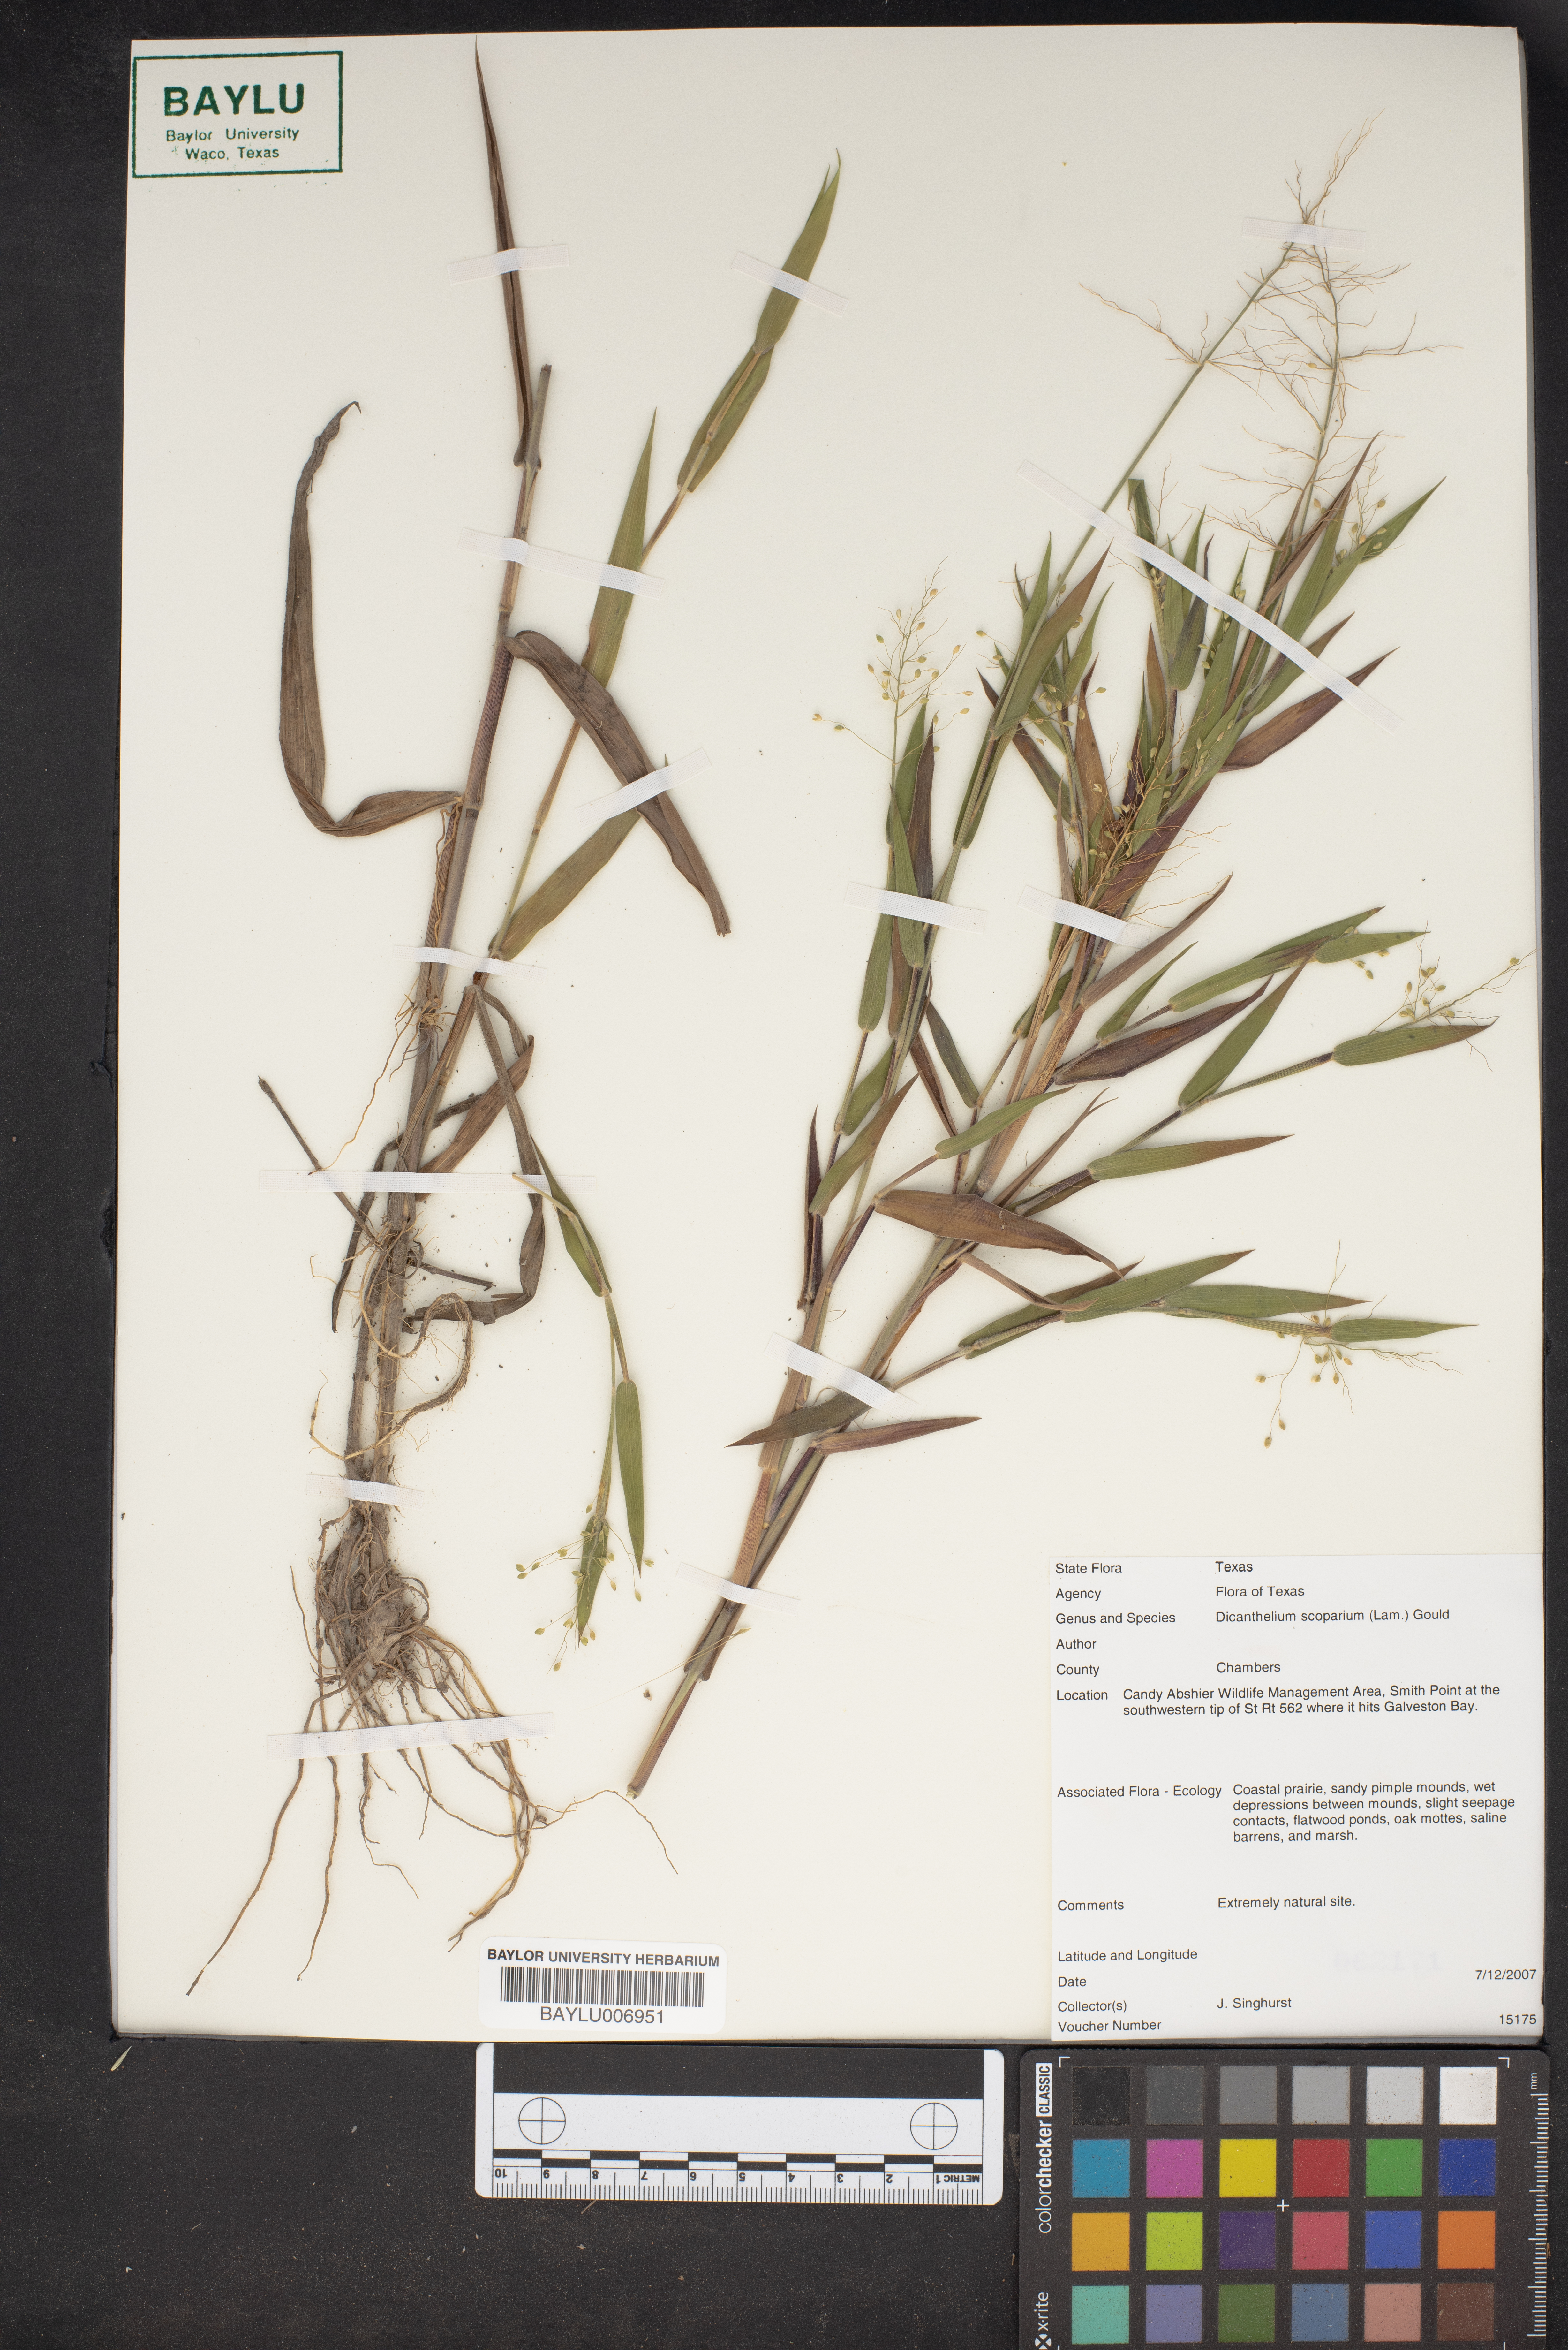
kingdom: Plantae
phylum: Tracheophyta
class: Liliopsida
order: Poales
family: Poaceae
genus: Dichanthelium
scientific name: Dichanthelium scoparium
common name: Velvety panic grass
